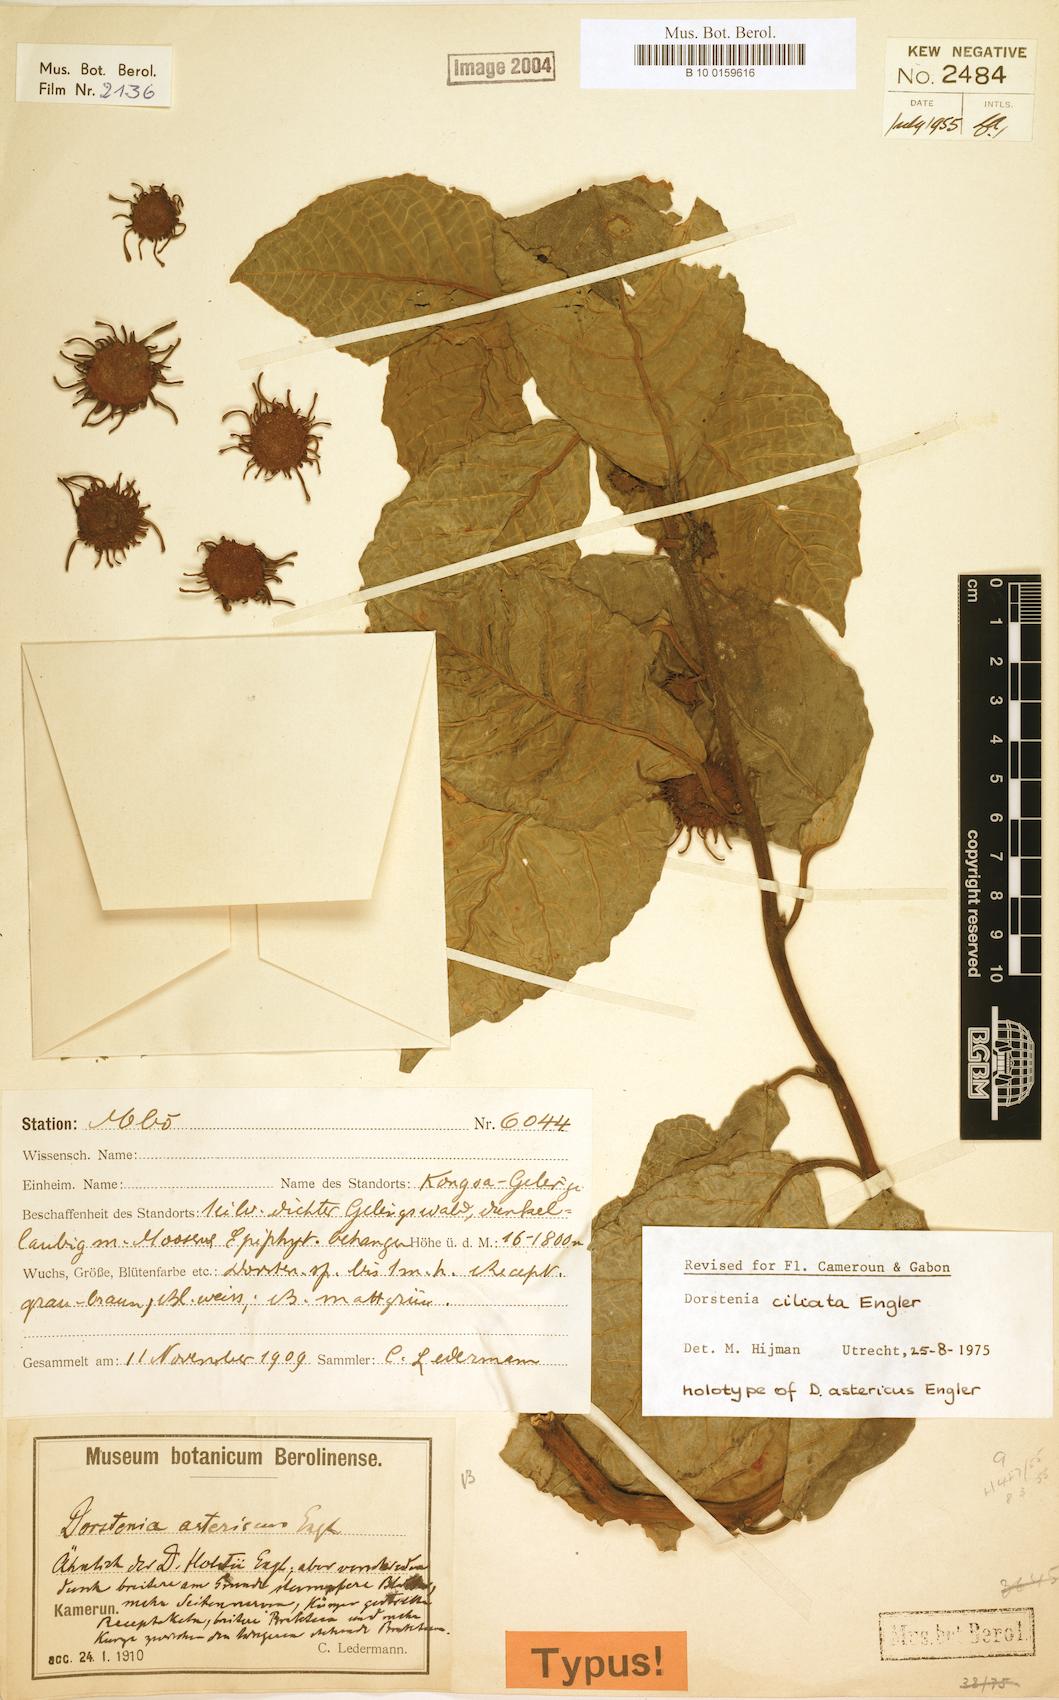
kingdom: Plantae
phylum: Tracheophyta
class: Magnoliopsida
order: Rosales
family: Moraceae
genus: Dorstenia
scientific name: Dorstenia ciliata
